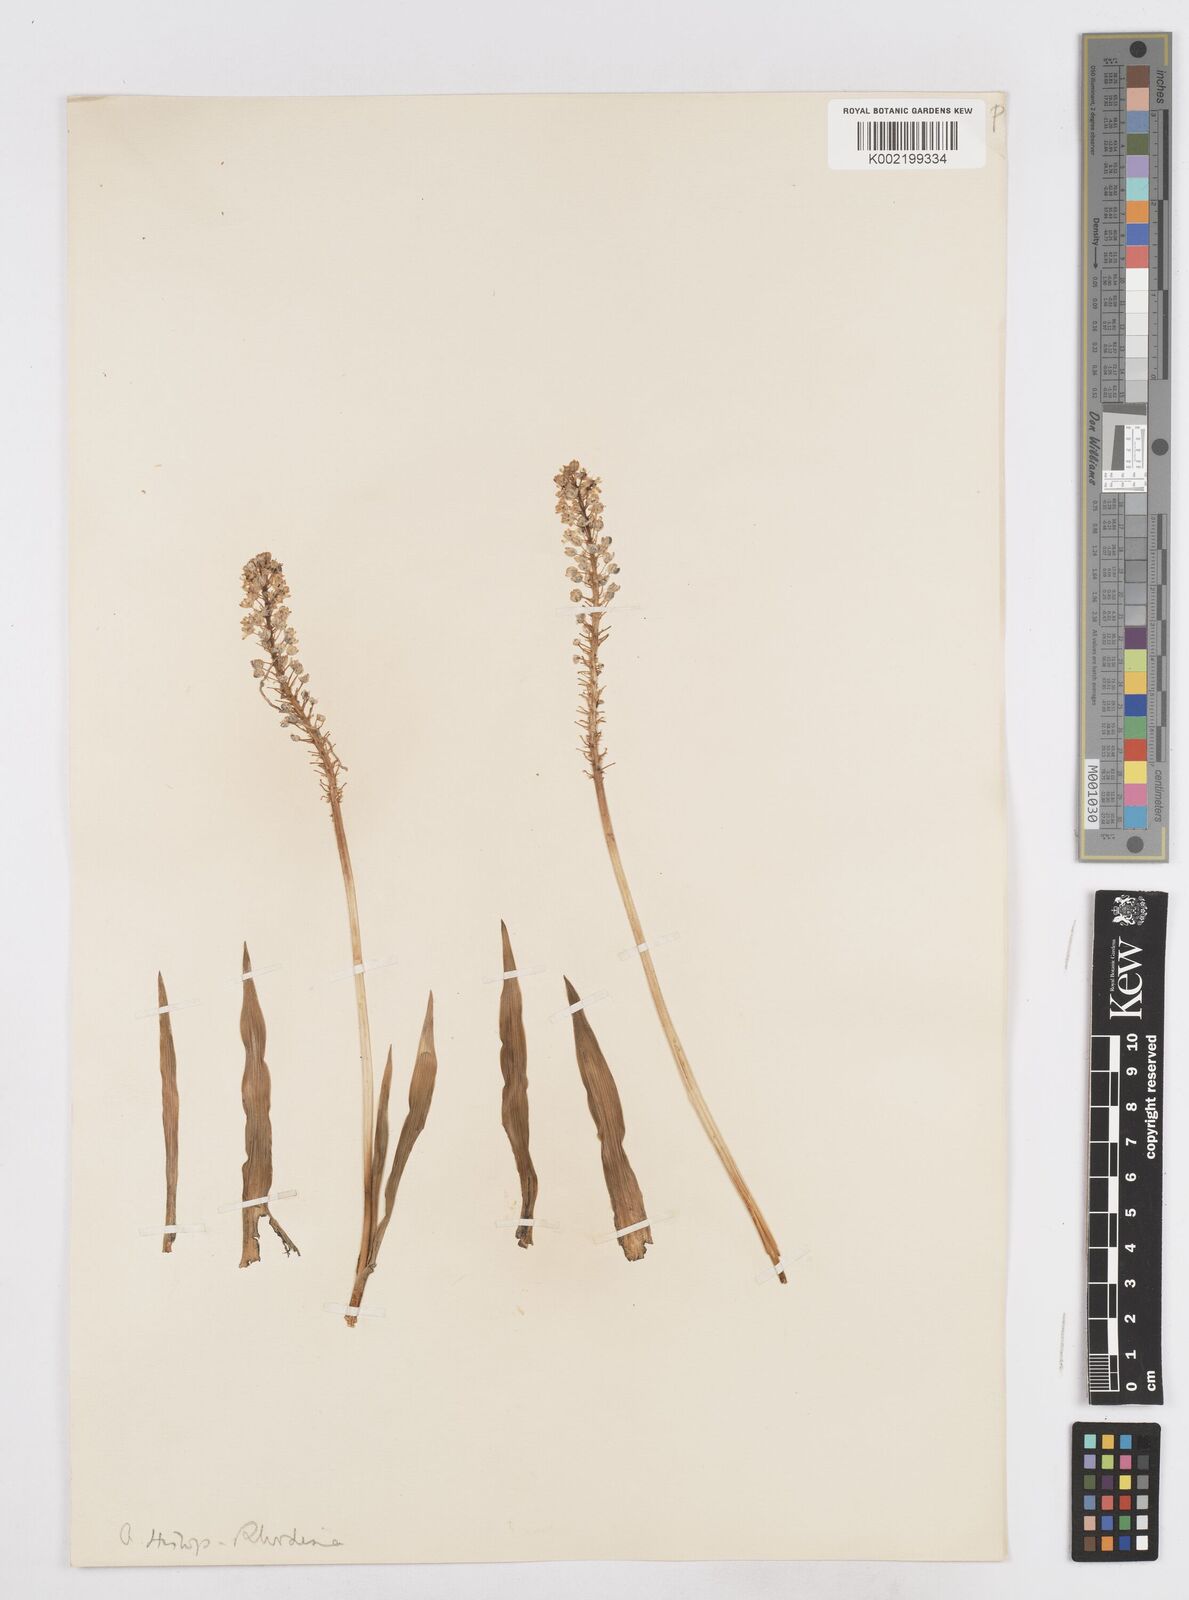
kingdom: Plantae
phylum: Tracheophyta
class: Liliopsida
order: Asparagales
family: Asparagaceae
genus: Schizocarphus
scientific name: Schizocarphus nervosus
